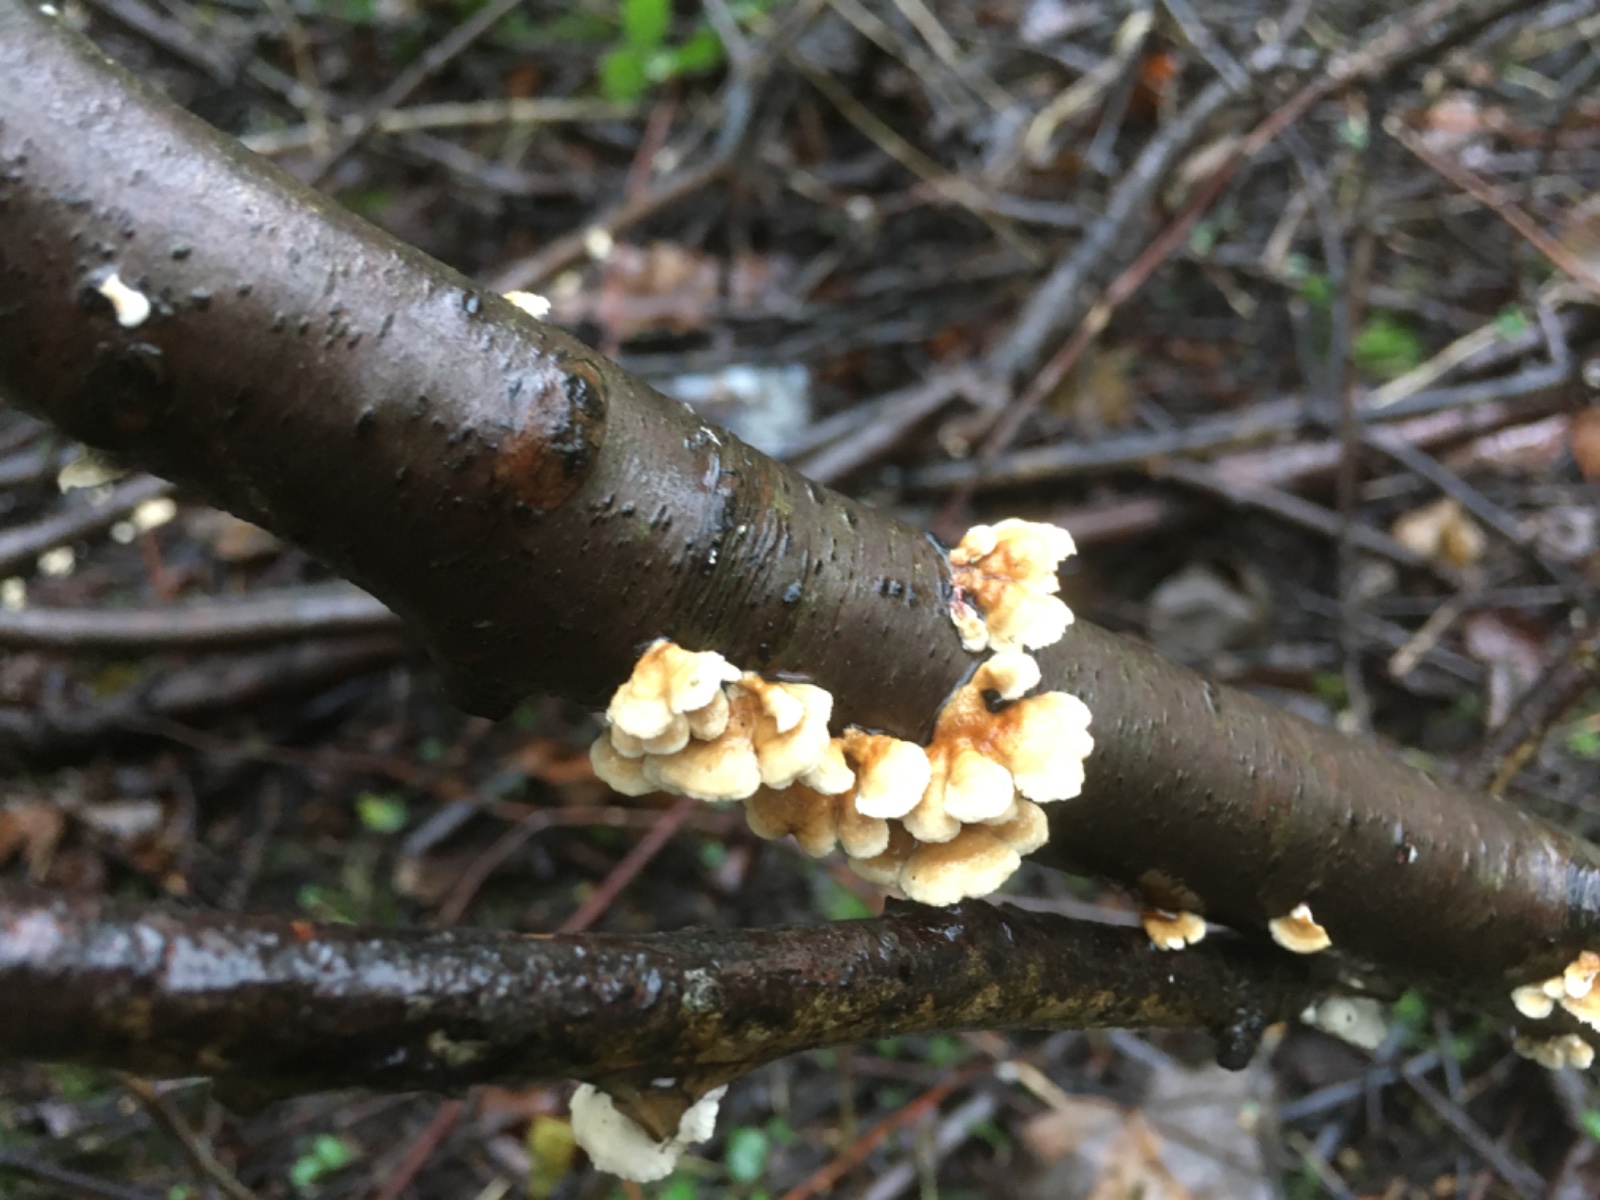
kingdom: Fungi
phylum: Basidiomycota
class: Agaricomycetes
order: Amylocorticiales
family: Amylocorticiaceae
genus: Plicaturopsis
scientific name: Plicaturopsis crispa
